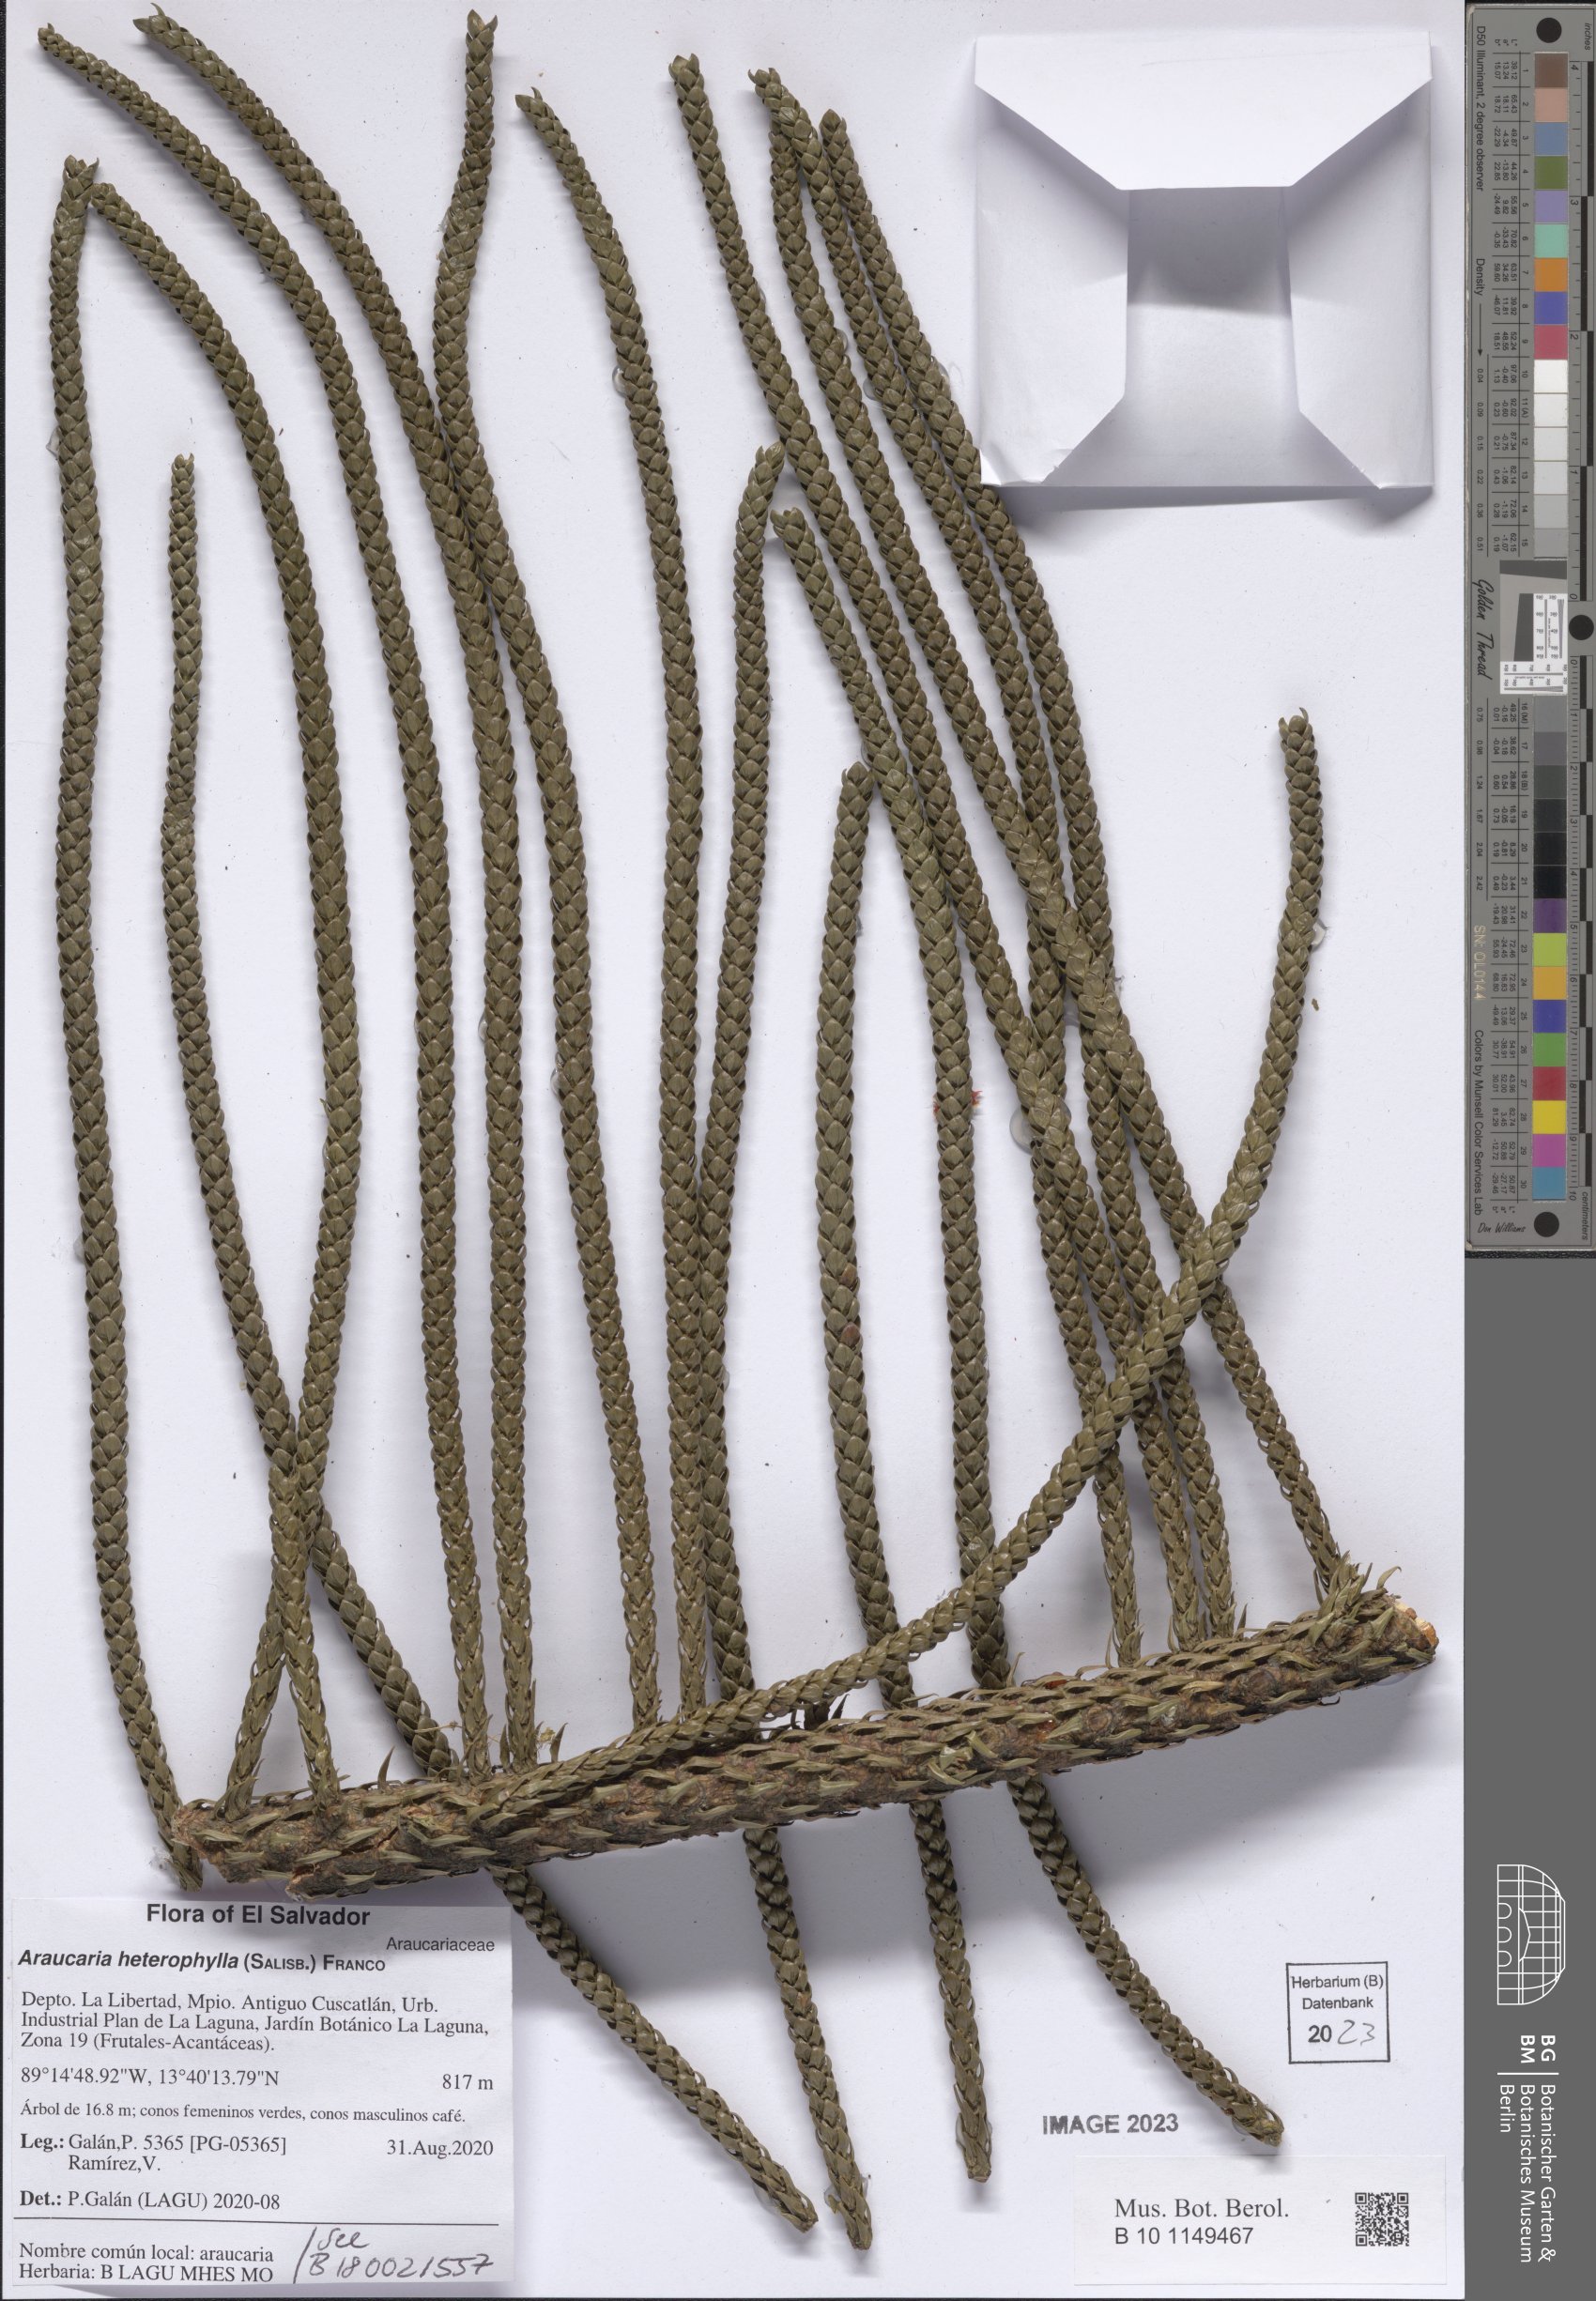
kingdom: Plantae
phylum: Tracheophyta
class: Pinopsida
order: Pinales
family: Araucariaceae
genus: Araucaria
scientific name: Araucaria heterophylla
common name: Norfolk island pine
